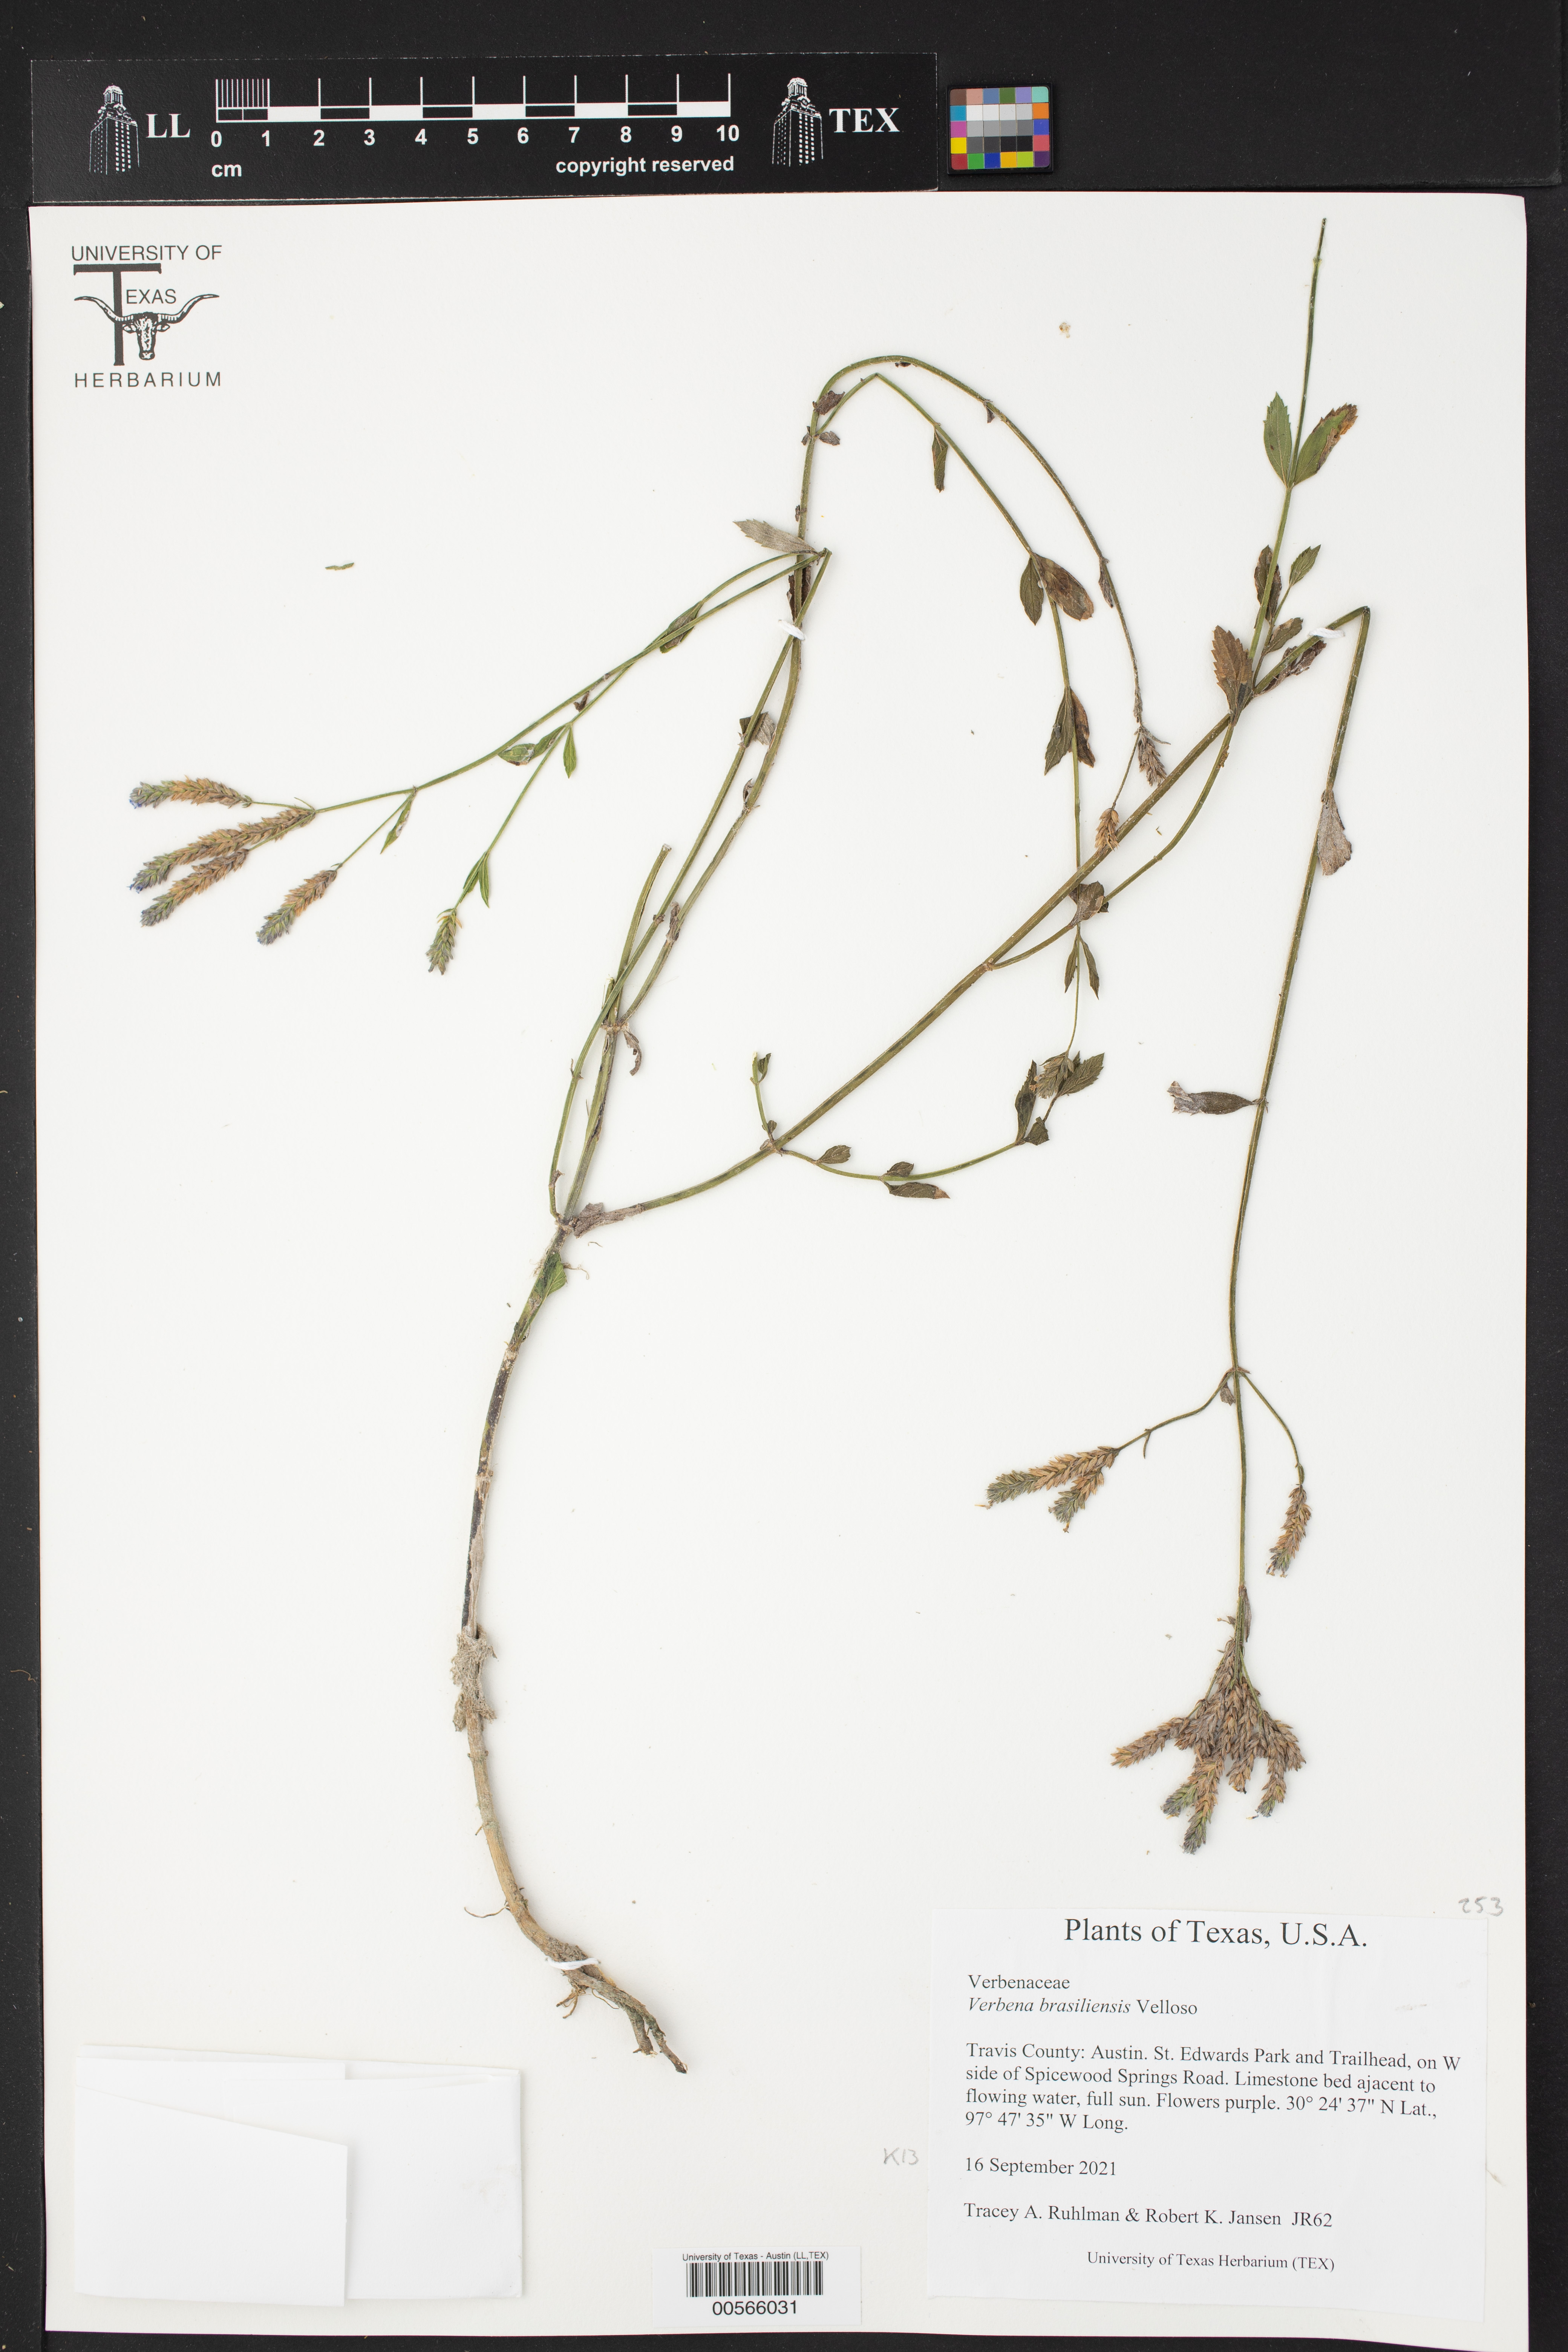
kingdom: Plantae
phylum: Tracheophyta
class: Magnoliopsida
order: Lamiales
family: Verbenaceae
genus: Verbena
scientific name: Verbena brasiliensis
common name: Brazilian vervain
